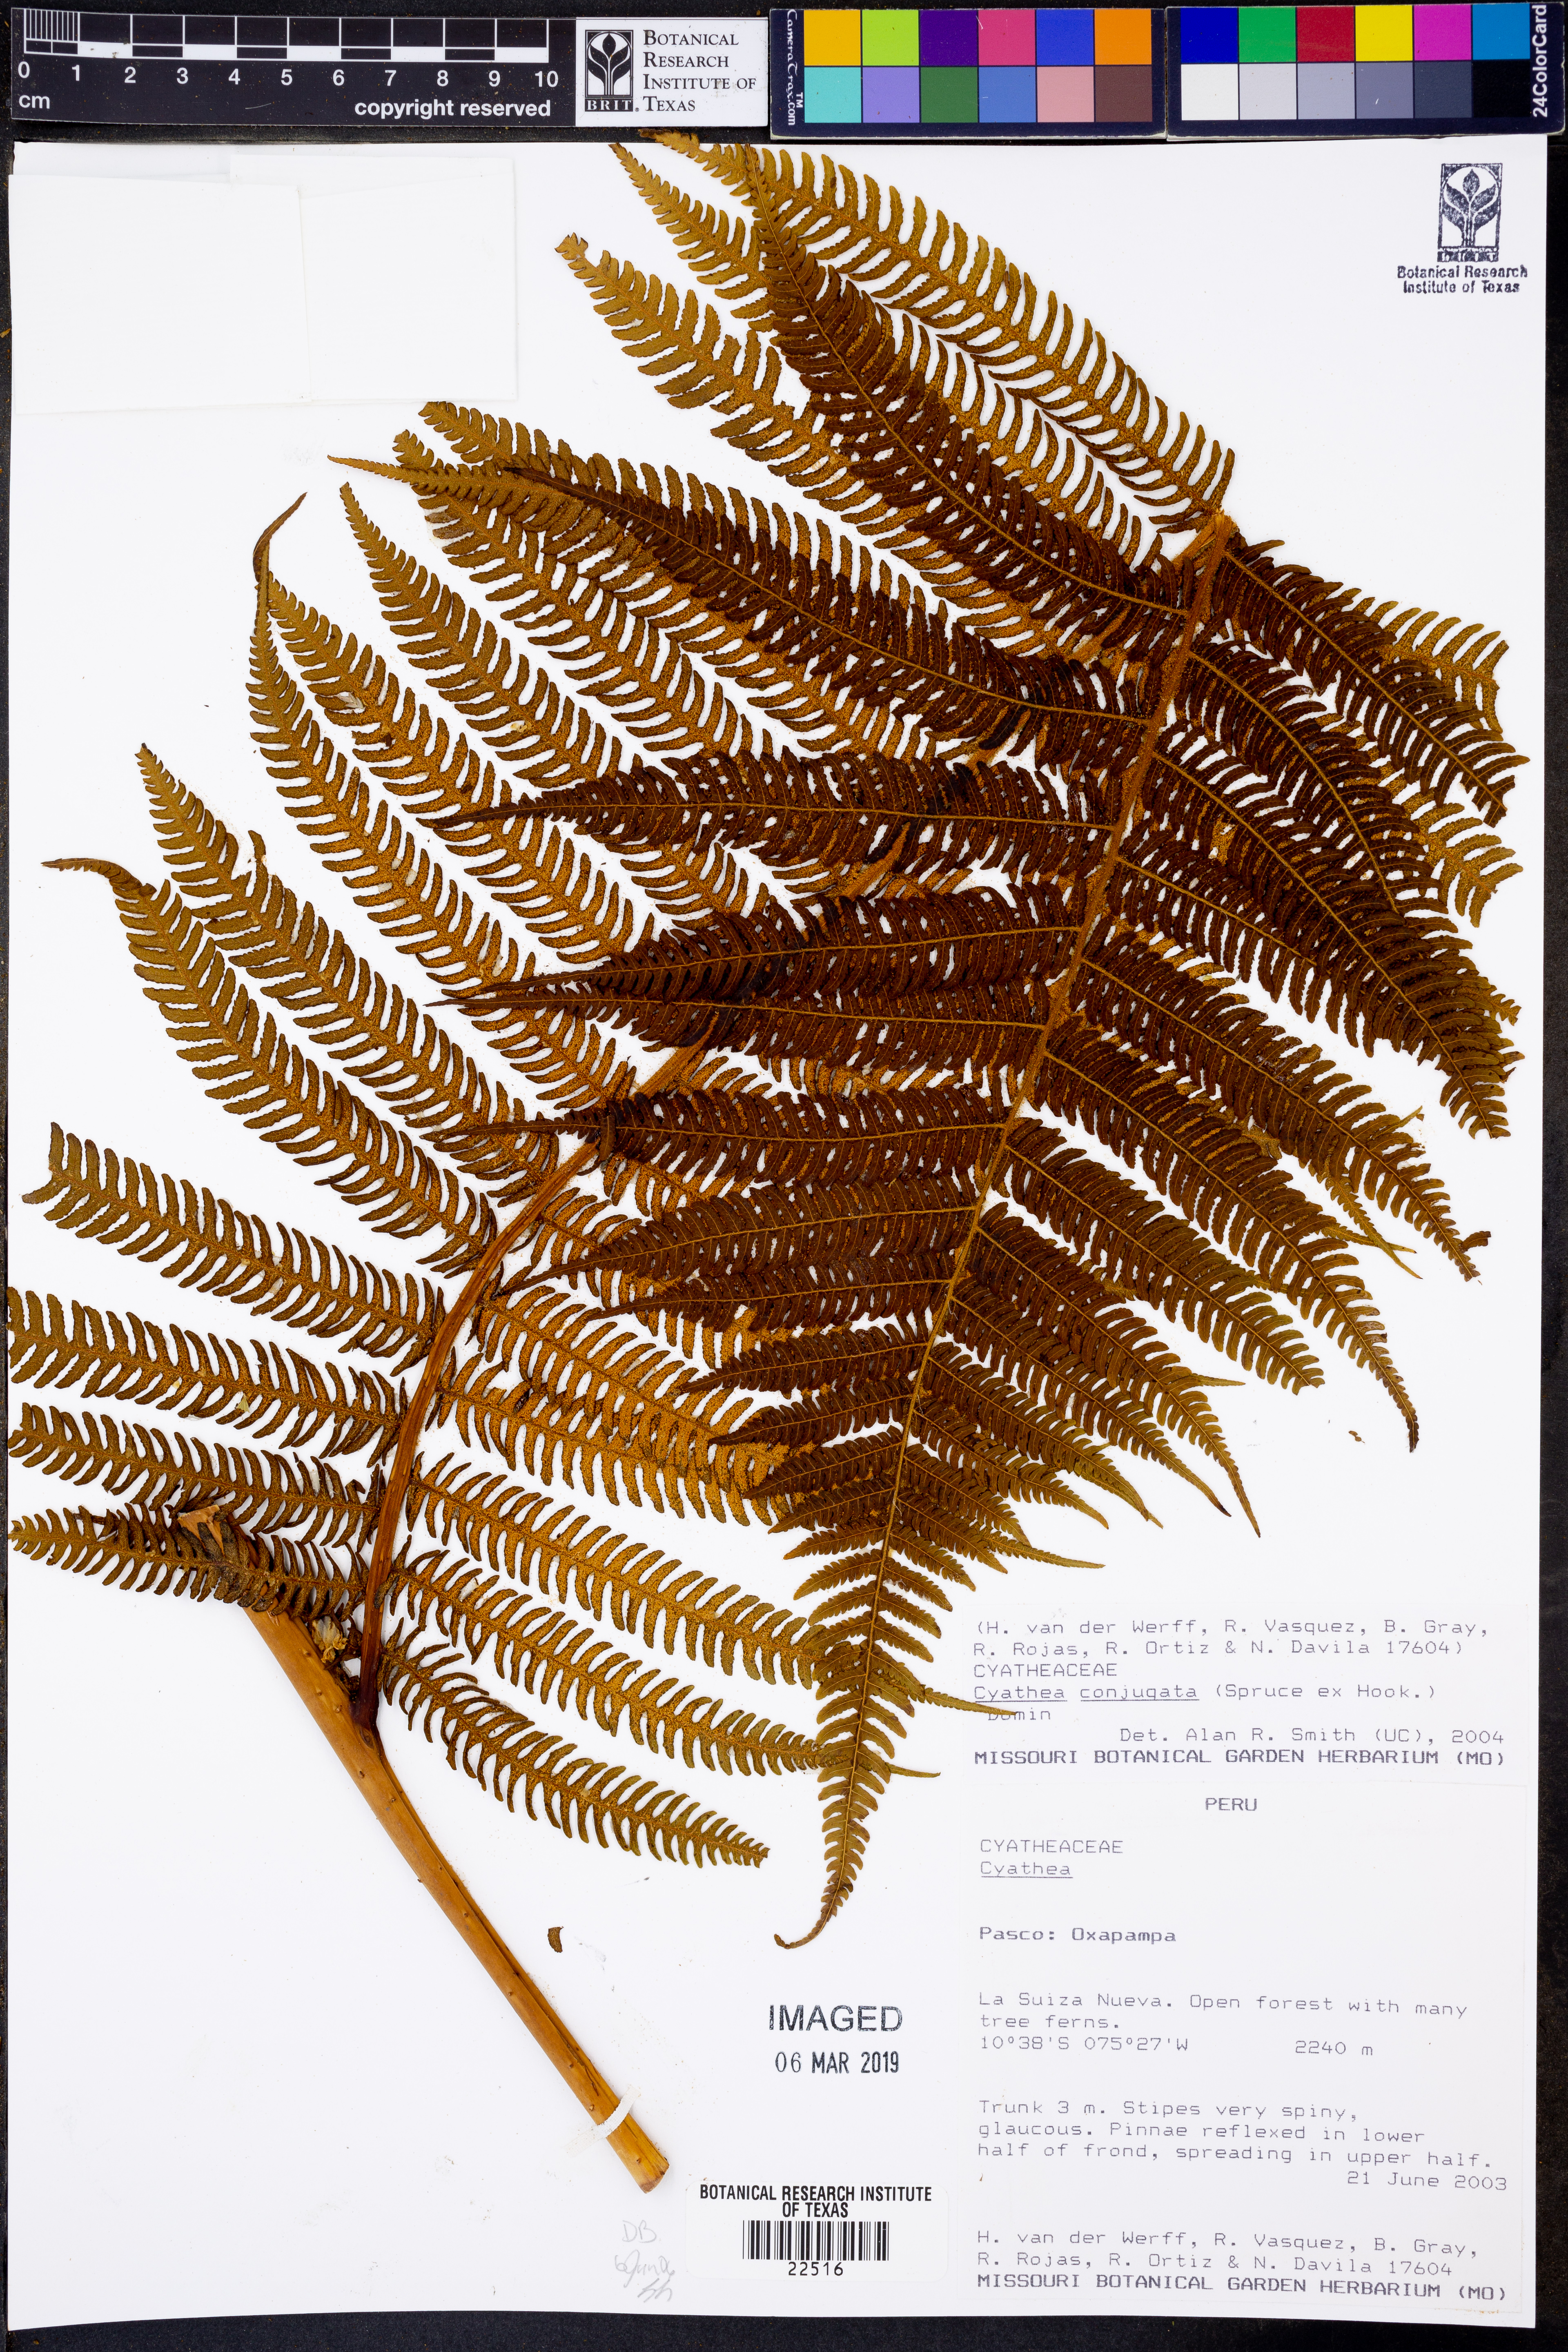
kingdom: Plantae
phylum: Tracheophyta
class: Polypodiopsida
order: Polypodiales
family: Polypodiaceae
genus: Pleopeltis
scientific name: Pleopeltis polypodioides
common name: Resurrection fern
